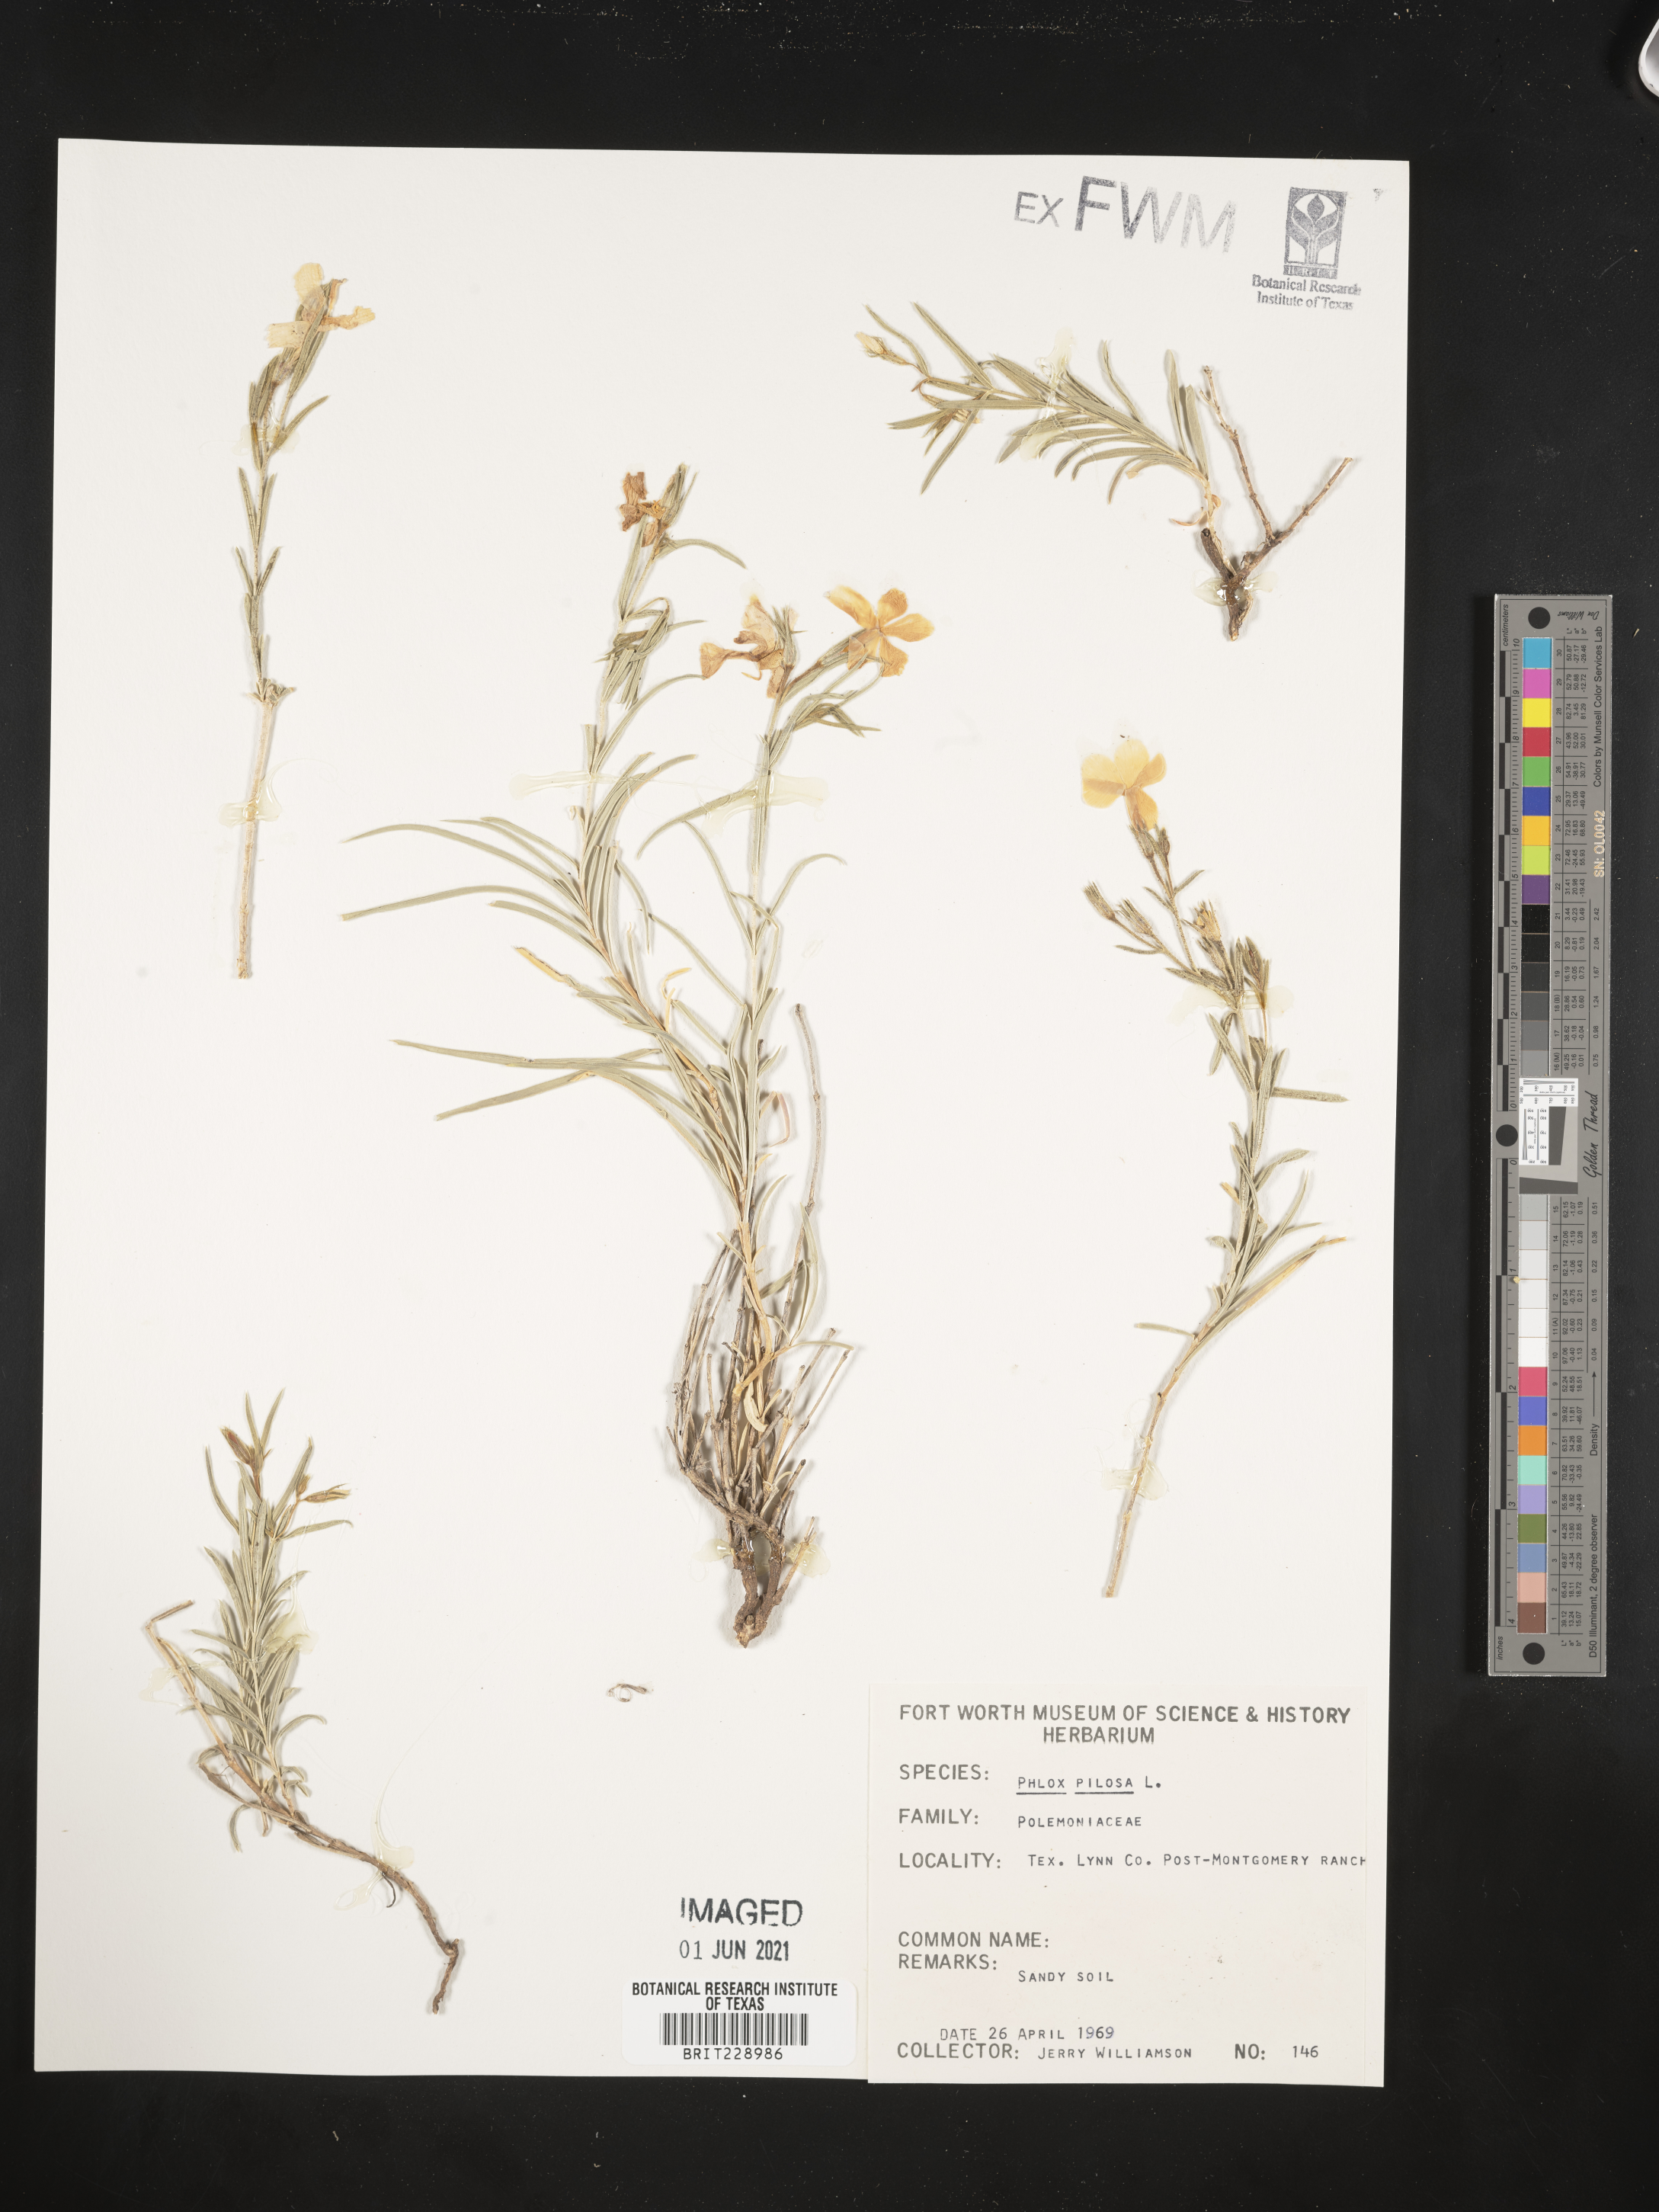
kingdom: Plantae
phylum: Tracheophyta
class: Magnoliopsida
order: Ericales
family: Polemoniaceae
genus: Phlox
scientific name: Phlox pilosa
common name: Prairie phlox
